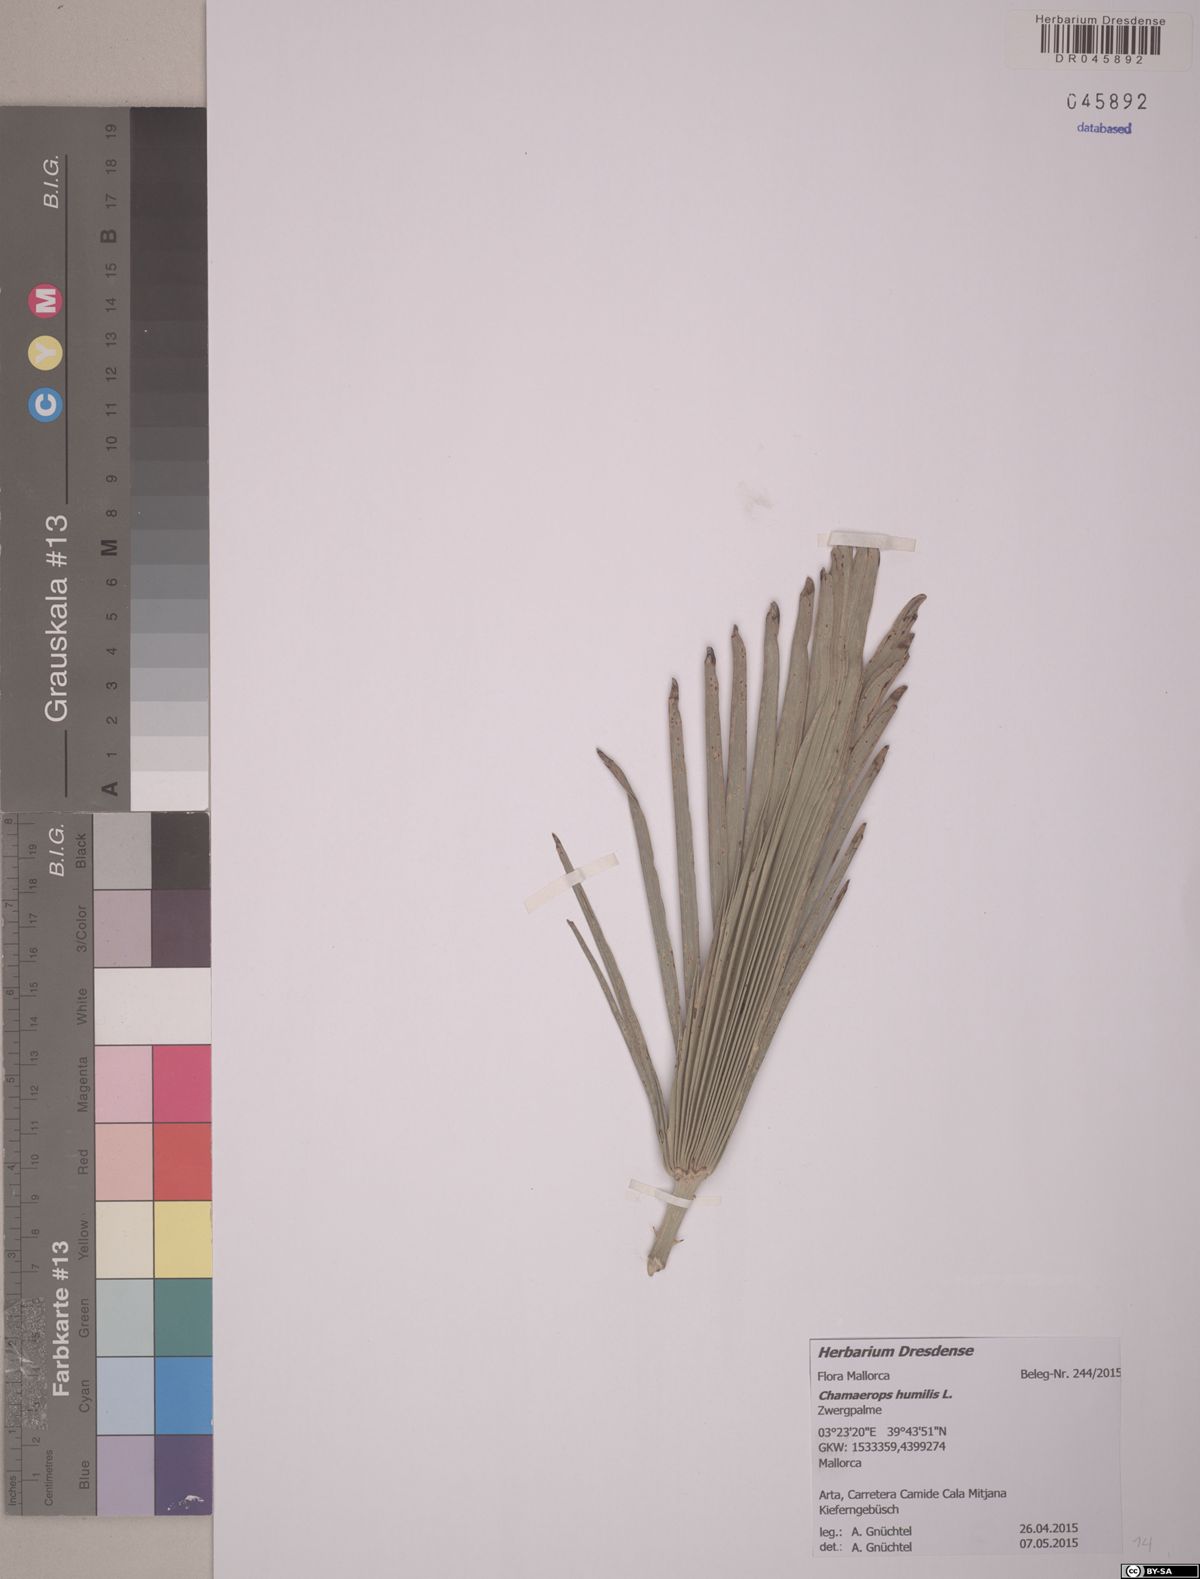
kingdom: Plantae
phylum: Tracheophyta
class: Liliopsida
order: Arecales
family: Arecaceae
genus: Chamaerops
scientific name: Chamaerops humilis
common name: Dwarf fan palm
